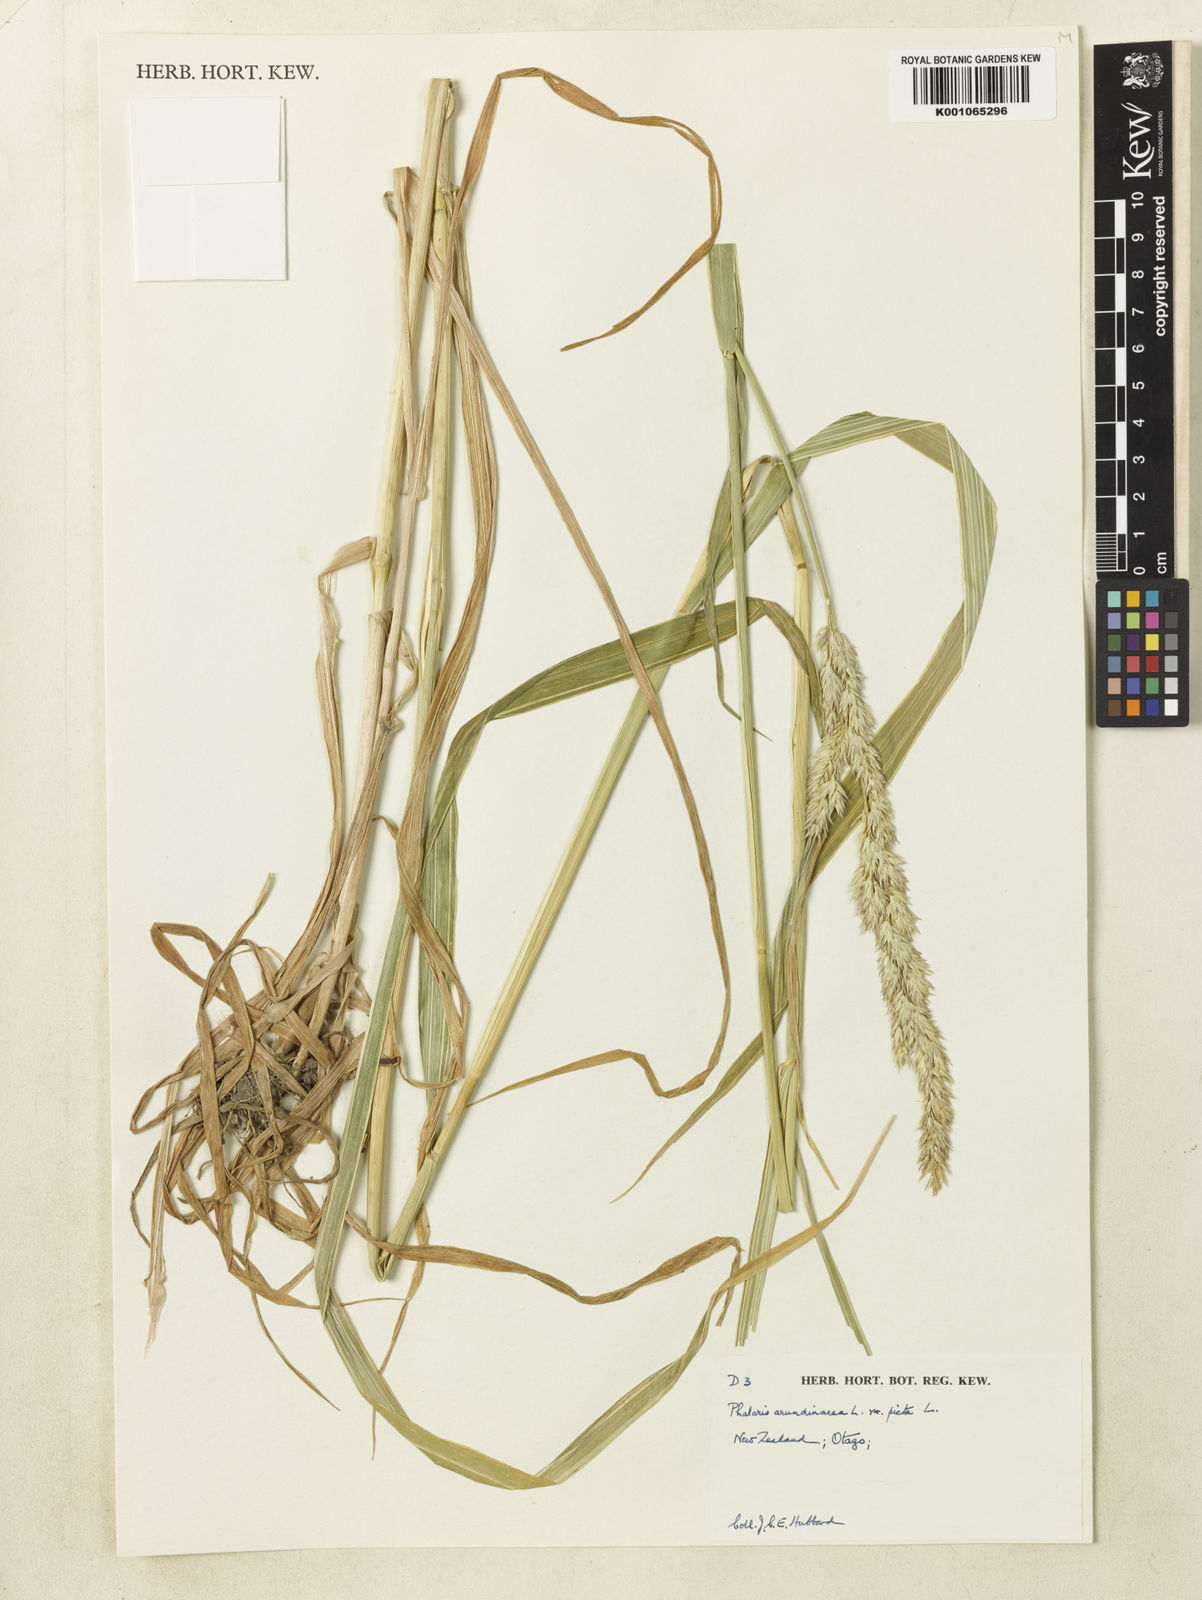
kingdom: Plantae
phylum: Tracheophyta
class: Liliopsida
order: Poales
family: Poaceae
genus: Phalaris
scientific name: Phalaris arundinacea
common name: Reed canary-grass
